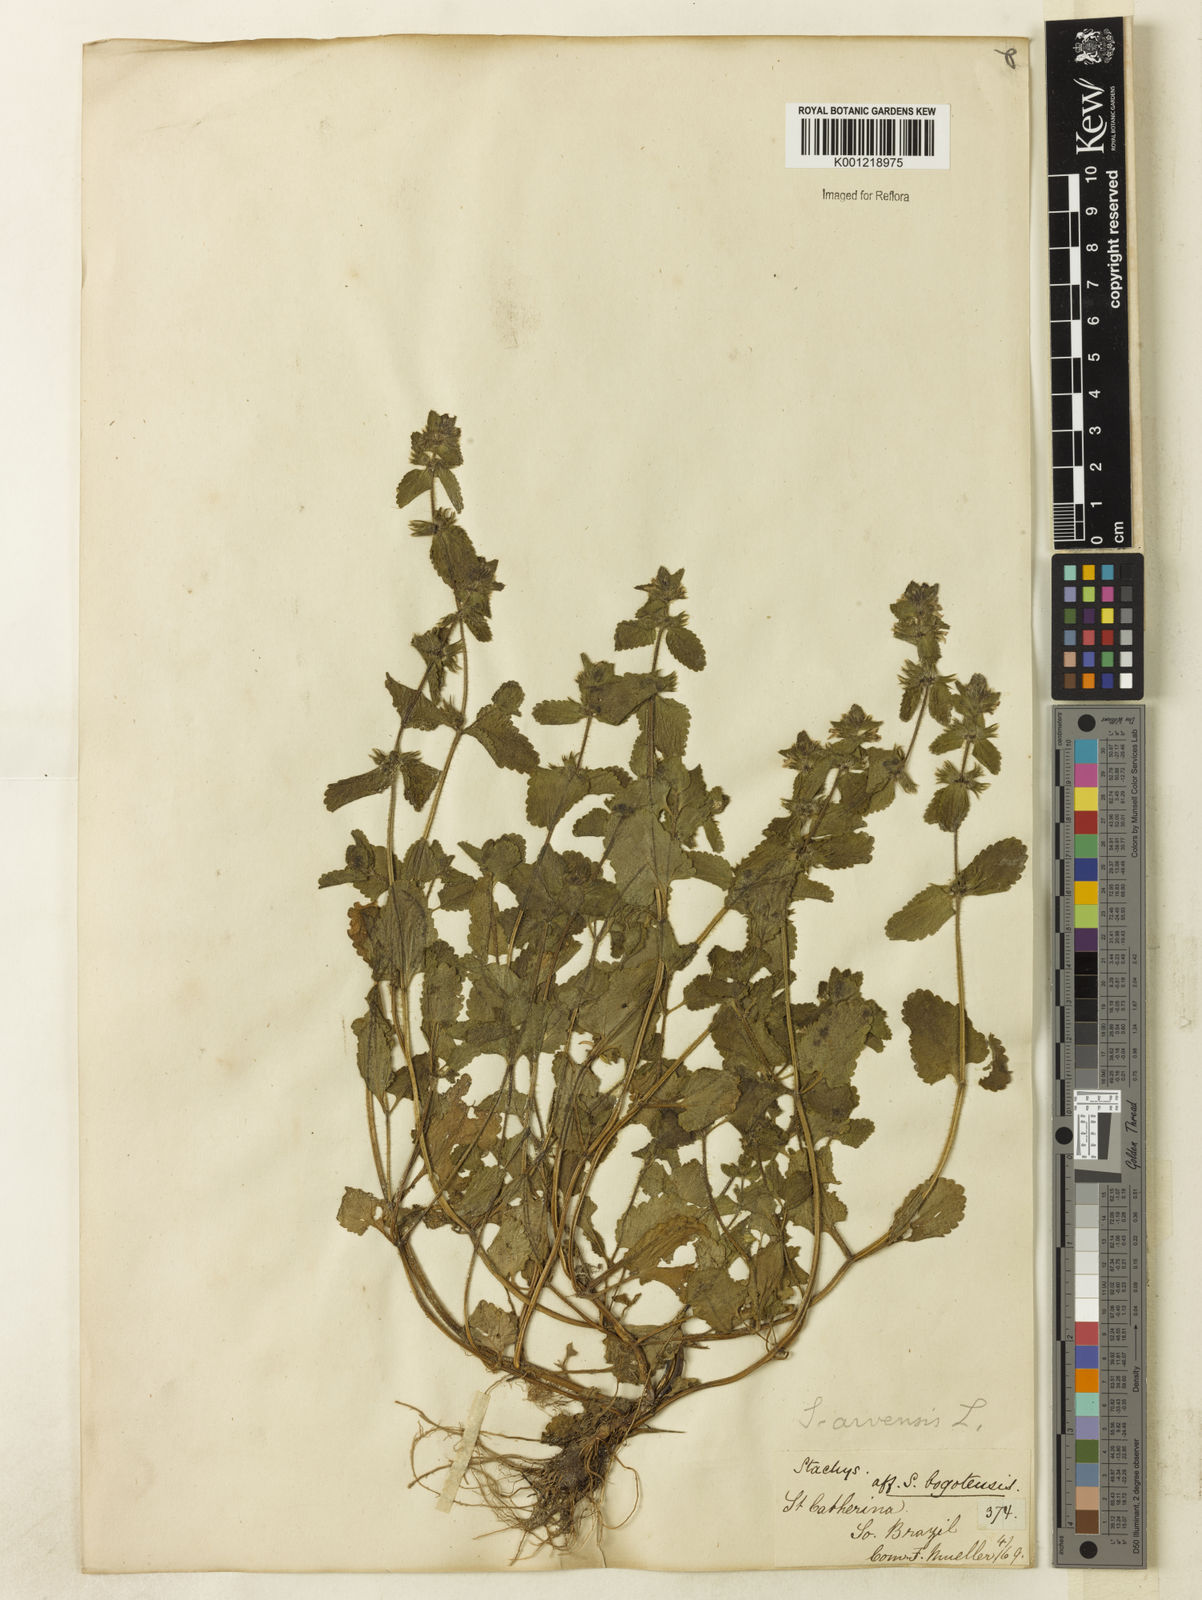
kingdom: Plantae
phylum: Tracheophyta
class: Magnoliopsida
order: Lamiales
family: Lamiaceae
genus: Stachys
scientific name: Stachys arvensis
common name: Field woundwort
